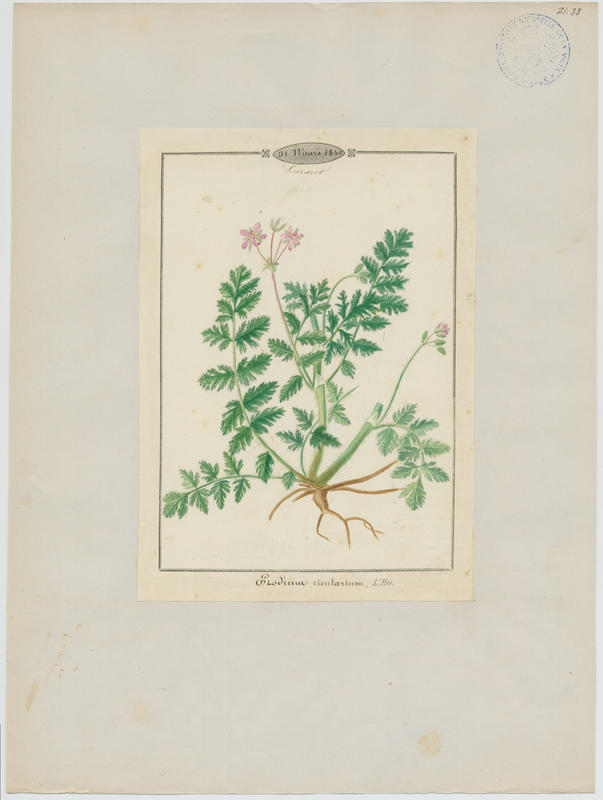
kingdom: Plantae
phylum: Tracheophyta
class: Magnoliopsida
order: Geraniales
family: Geraniaceae
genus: Erodium
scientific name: Erodium cicutarium
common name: Common stork's-bill
